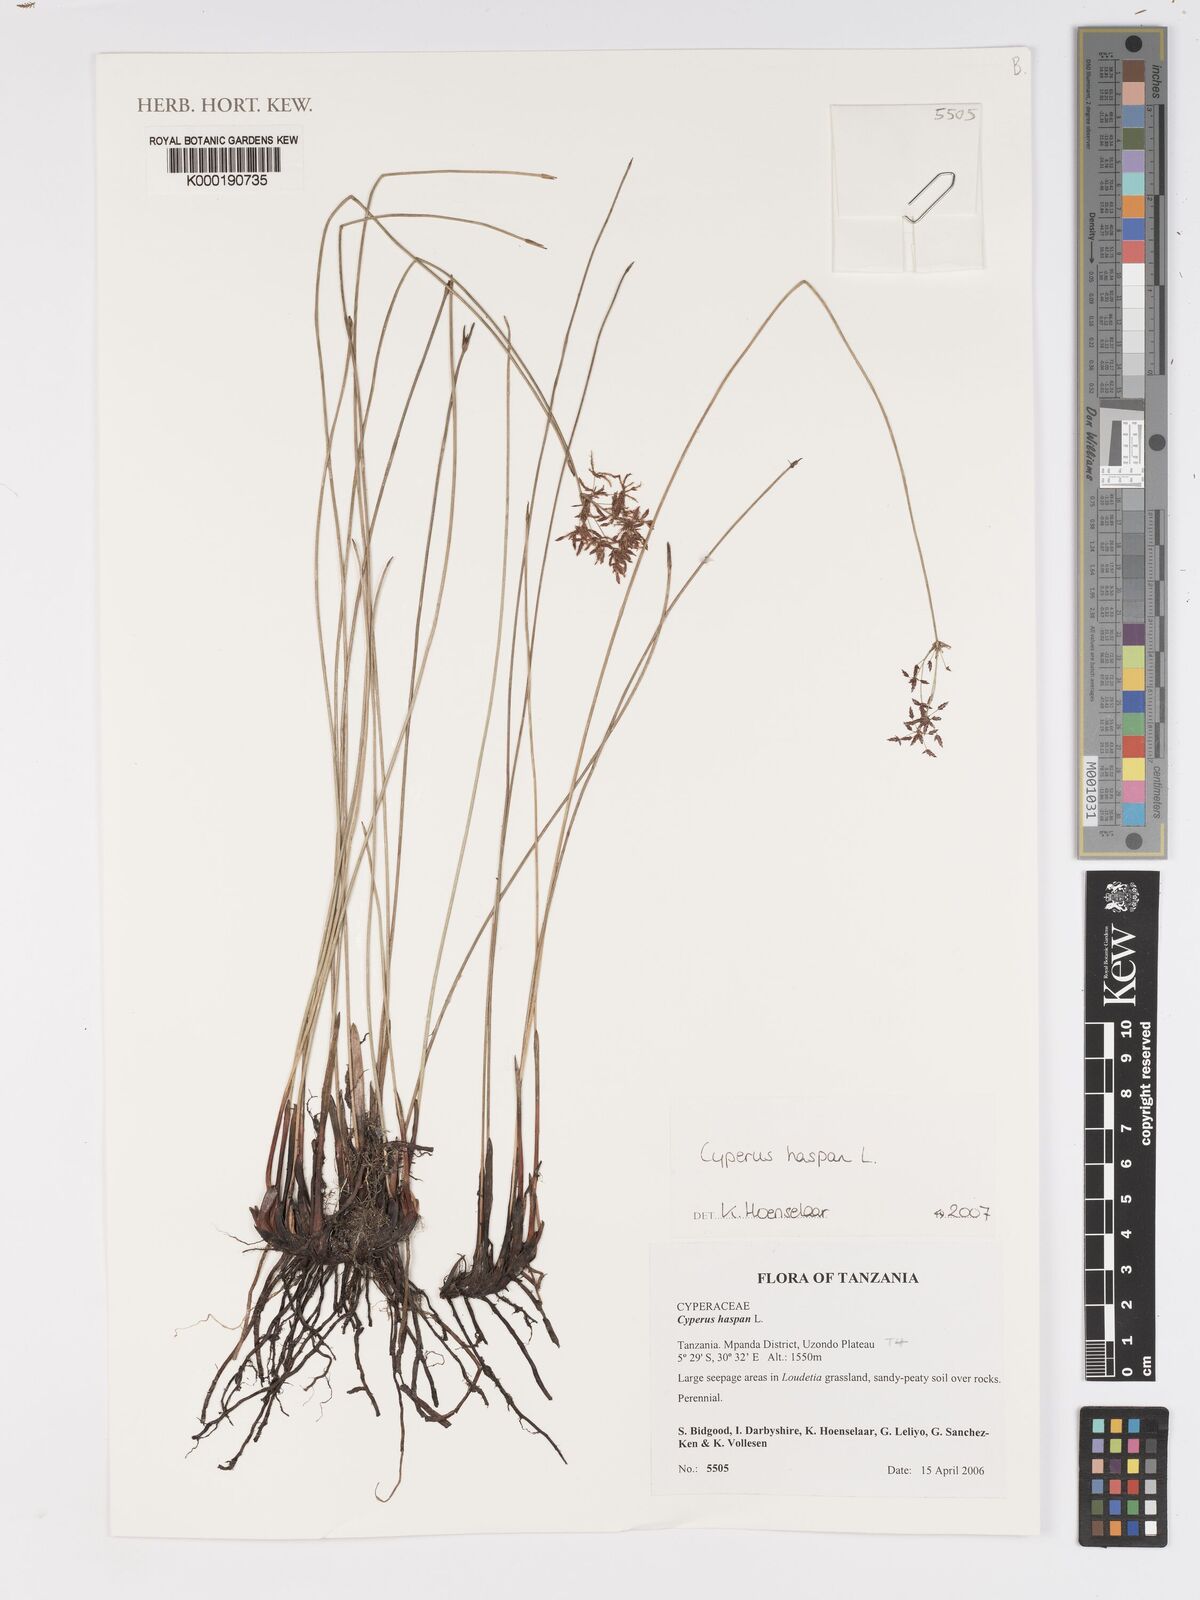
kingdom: Plantae
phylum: Tracheophyta
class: Liliopsida
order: Poales
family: Cyperaceae
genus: Cyperus
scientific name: Cyperus haspan
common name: Haspan flatsedge
